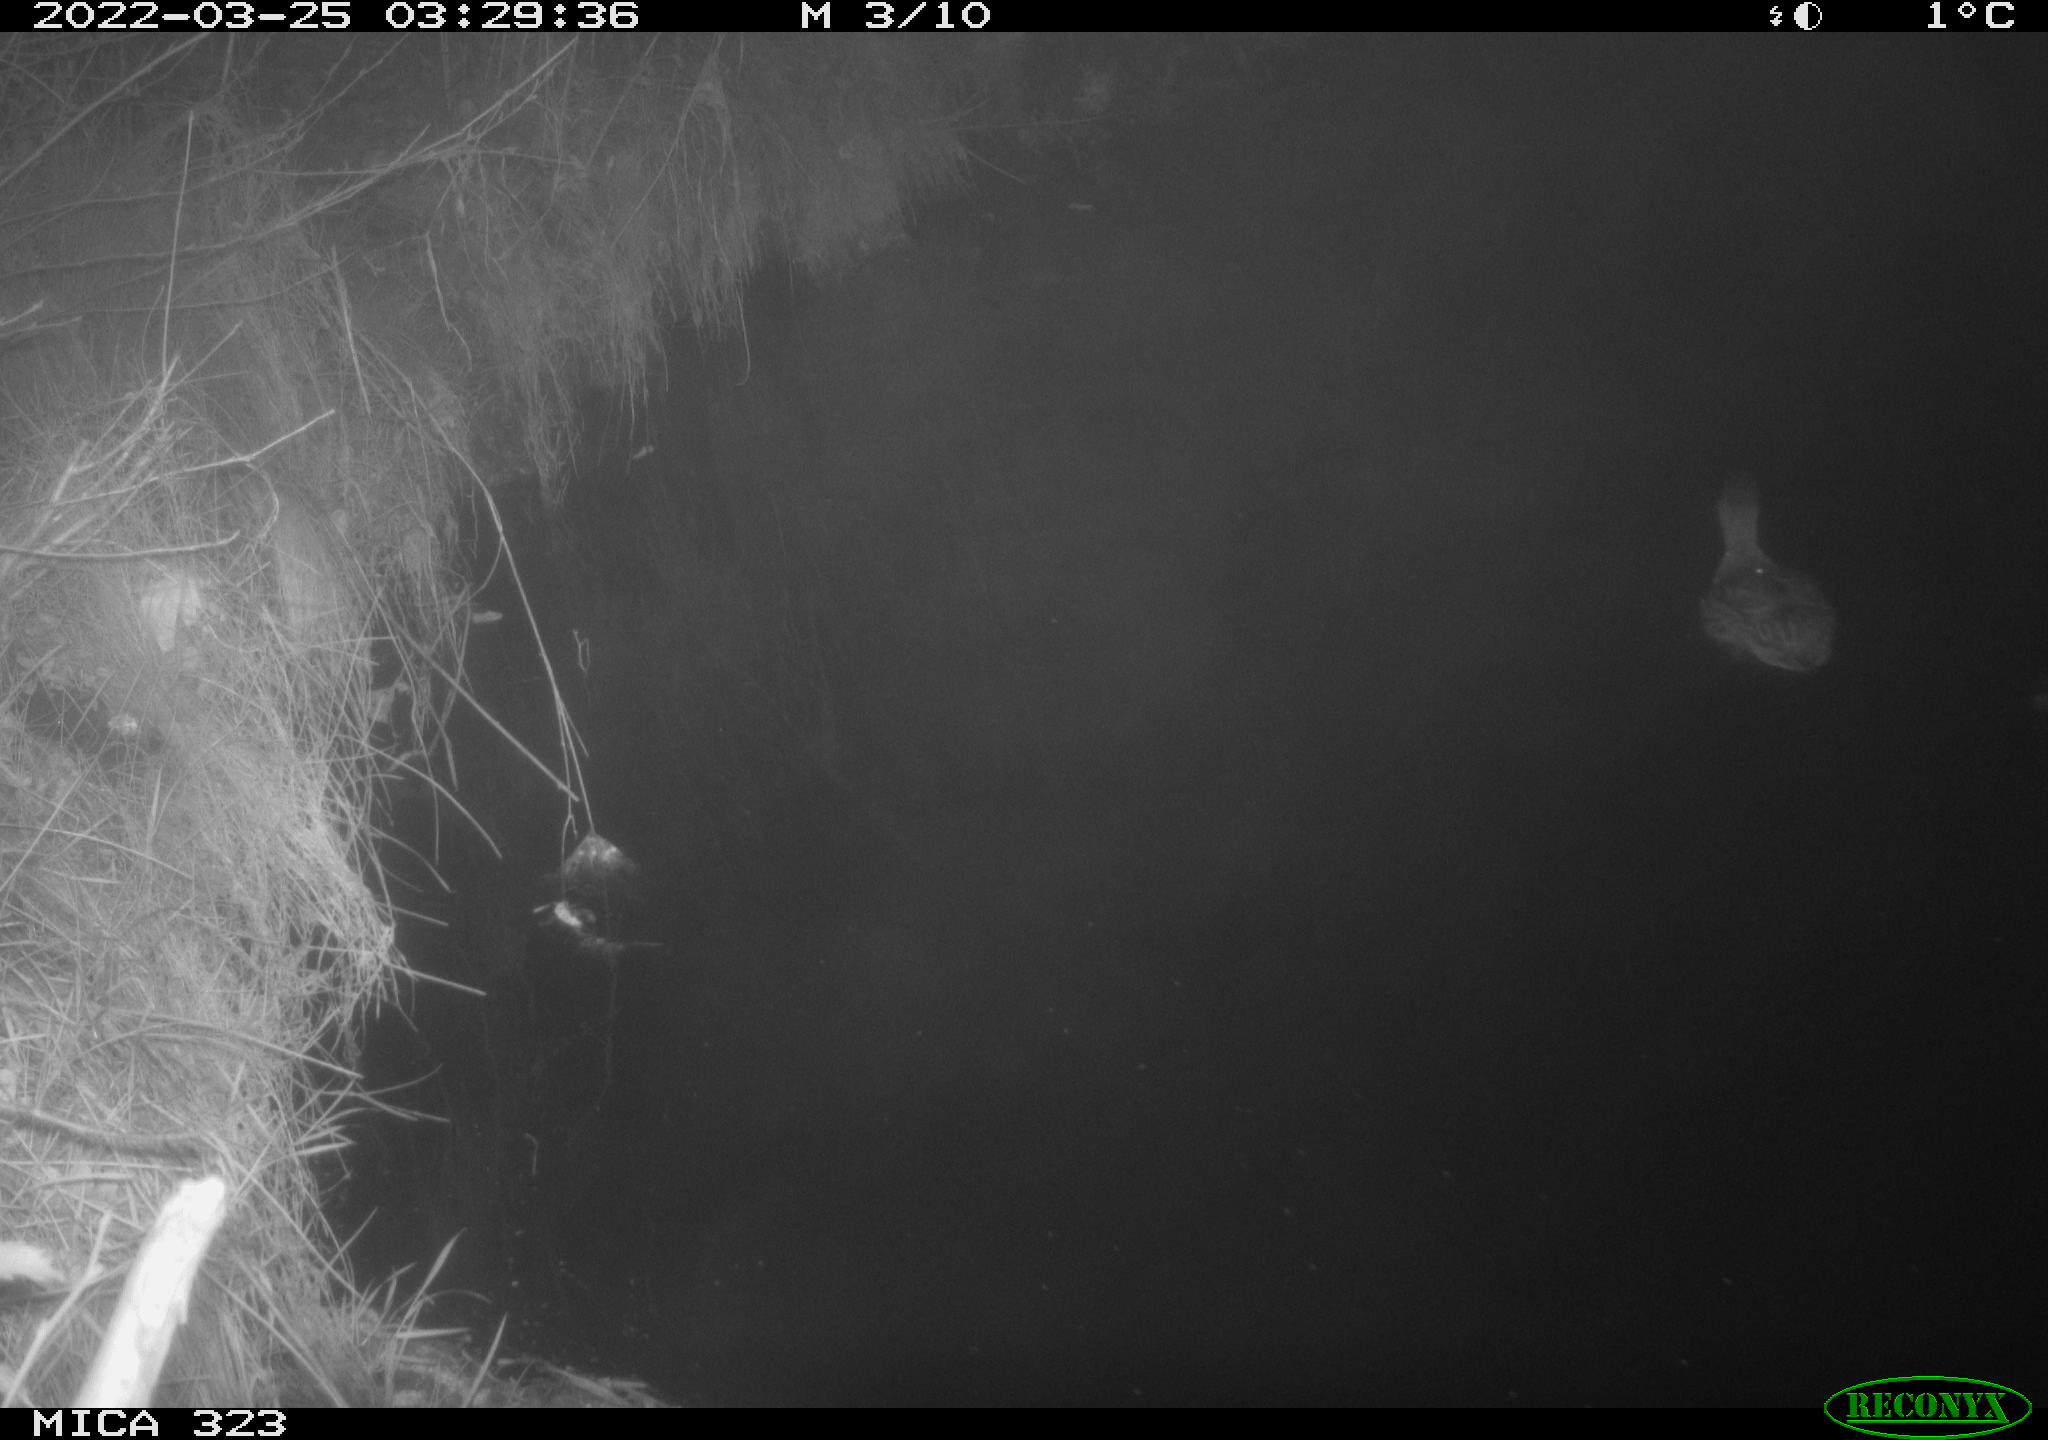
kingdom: Animalia
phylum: Chordata
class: Aves
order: Anseriformes
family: Anatidae
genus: Anas
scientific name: Anas platyrhynchos
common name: Mallard
